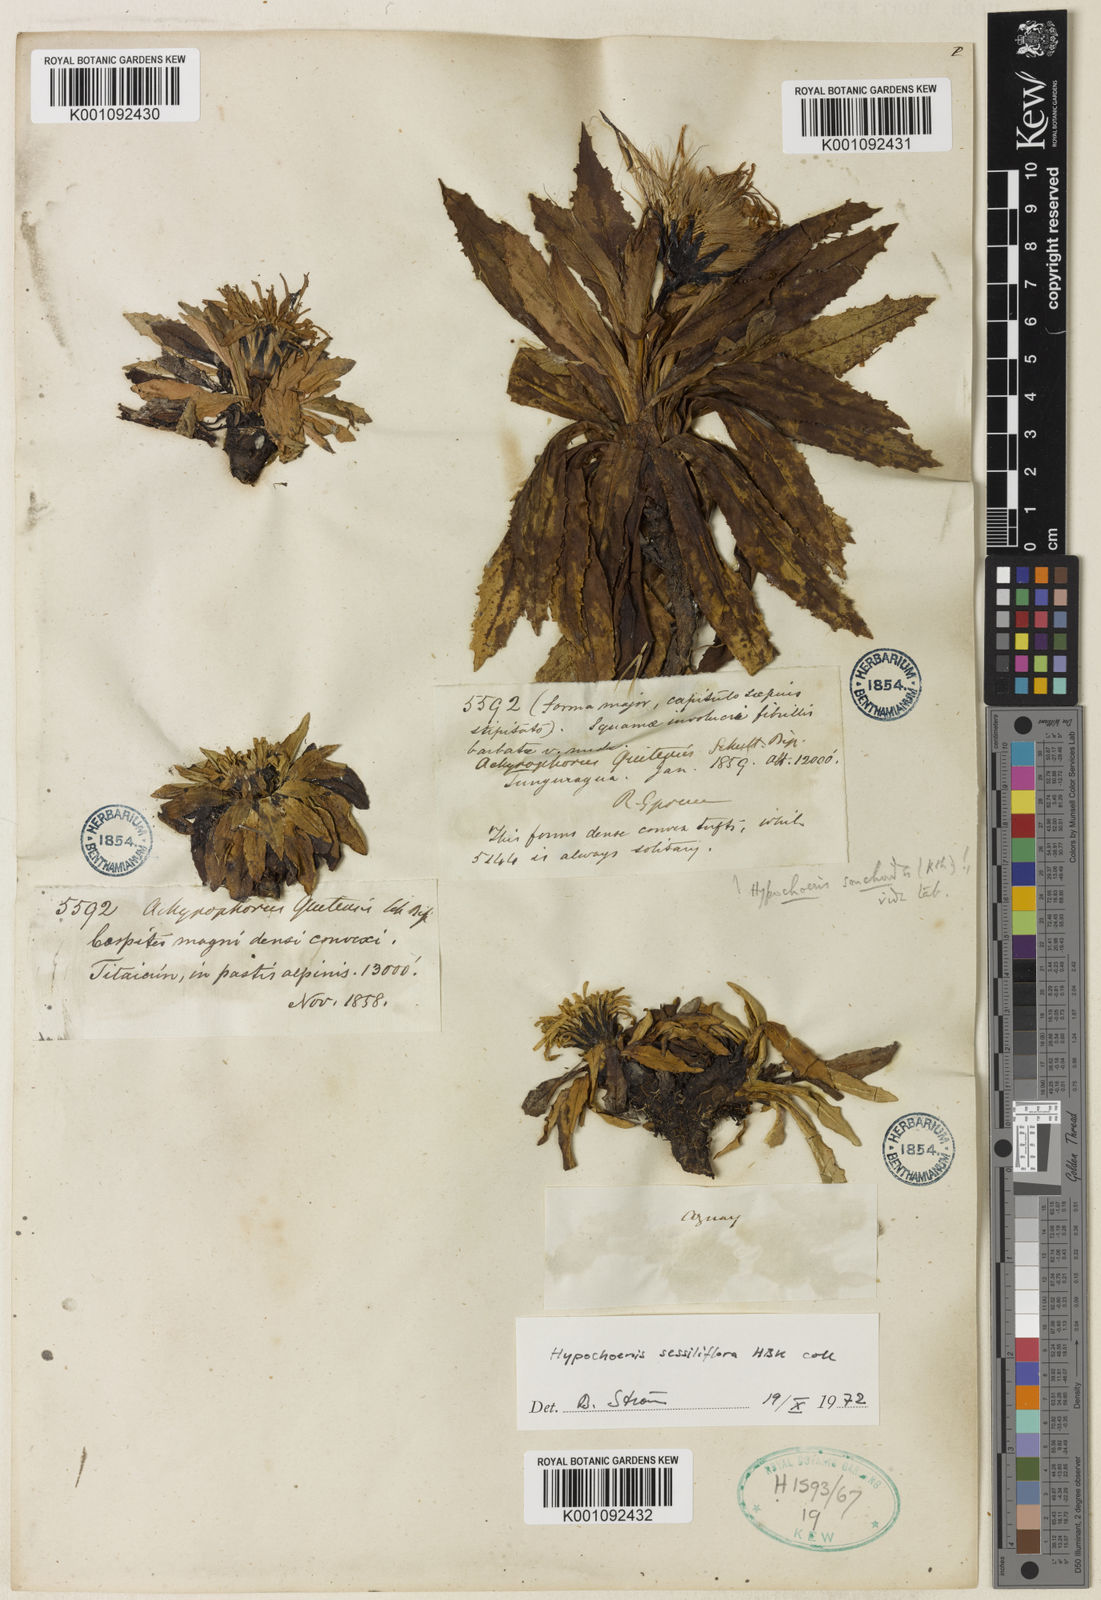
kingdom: Plantae
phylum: Tracheophyta
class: Magnoliopsida
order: Asterales
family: Asteraceae
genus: Hypochaeris
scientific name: Hypochaeris
